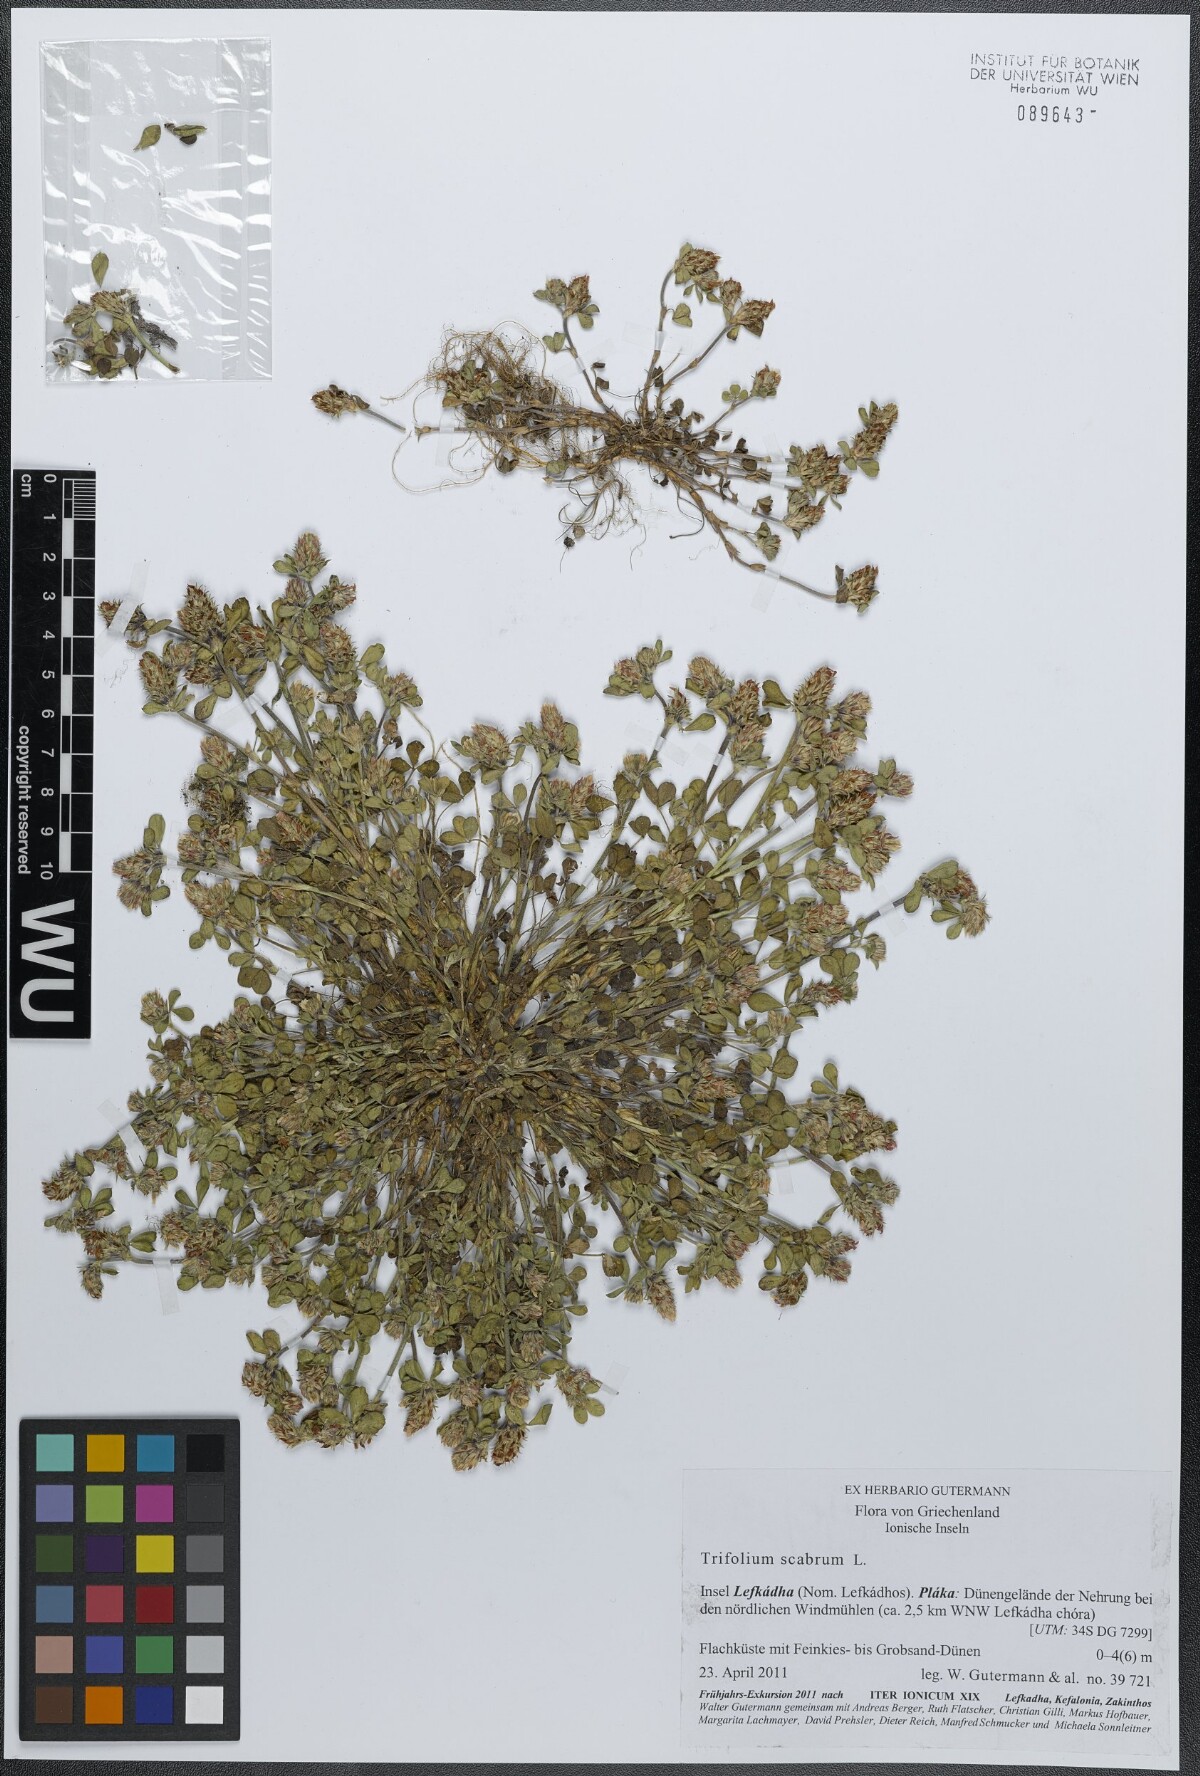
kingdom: Plantae
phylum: Tracheophyta
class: Magnoliopsida
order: Fabales
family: Fabaceae
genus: Trifolium
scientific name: Trifolium scabrum
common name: Rough clover
